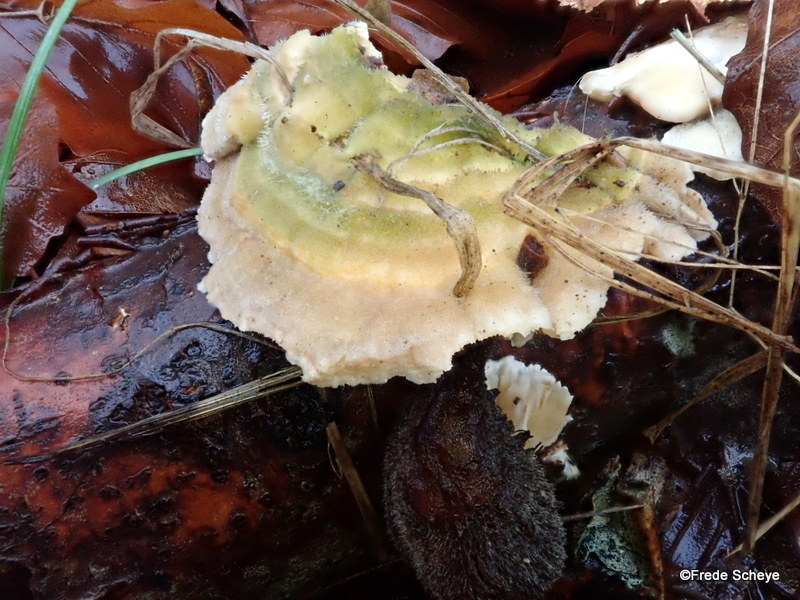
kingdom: Fungi
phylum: Basidiomycota
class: Agaricomycetes
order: Polyporales
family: Polyporaceae
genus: Lenzites
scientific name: Lenzites betulinus
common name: birke-læderporesvamp
